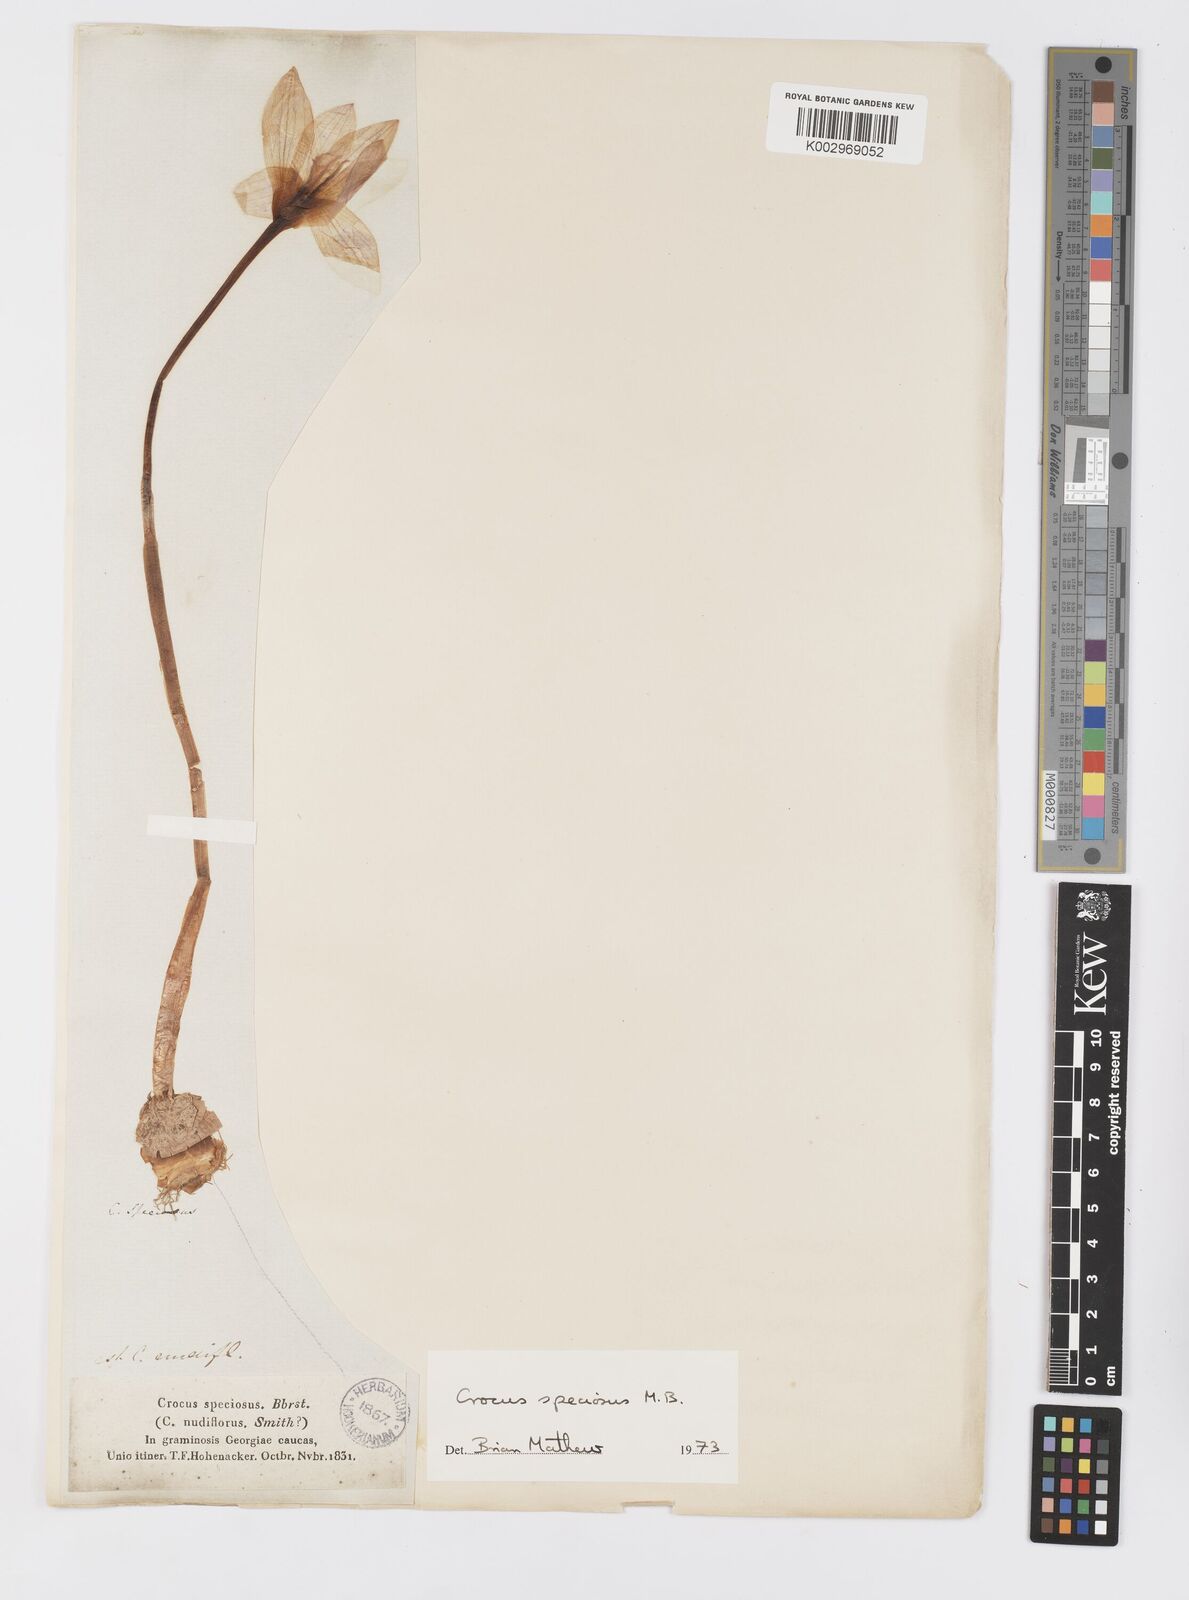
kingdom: Plantae
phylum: Tracheophyta
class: Liliopsida
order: Asparagales
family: Iridaceae
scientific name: Iridaceae
